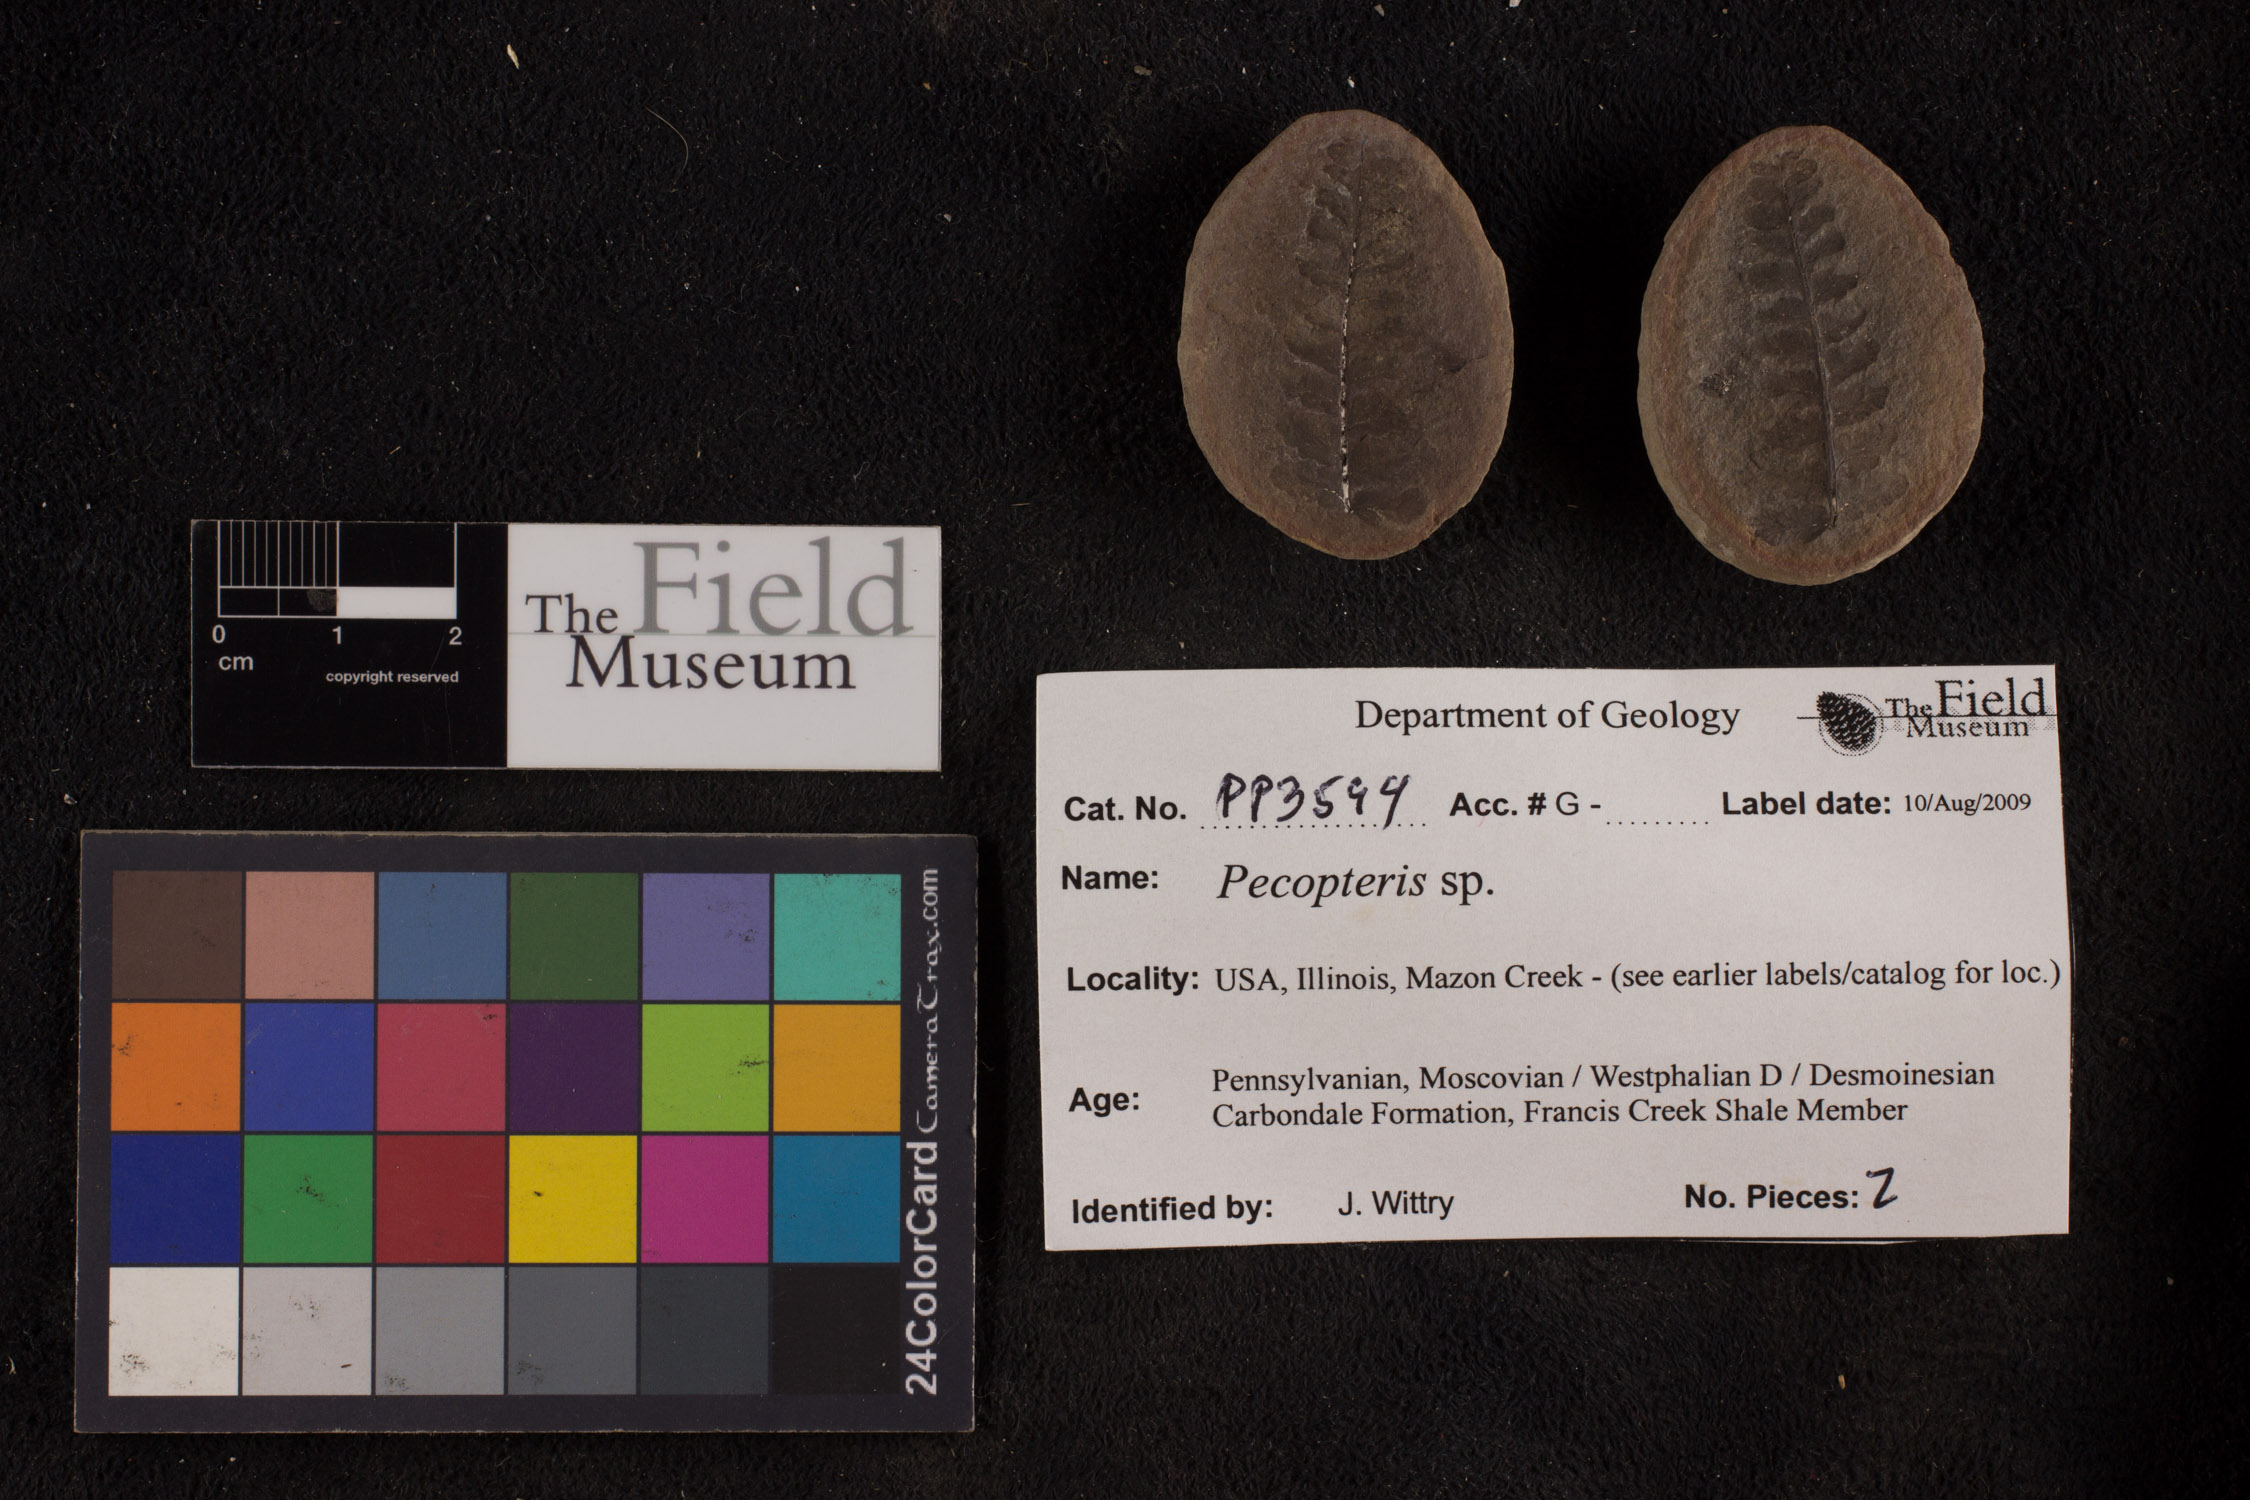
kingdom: Plantae
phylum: Tracheophyta
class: Polypodiopsida
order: Marattiales
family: Asterothecaceae
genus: Pecopteris
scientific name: Pecopteris
